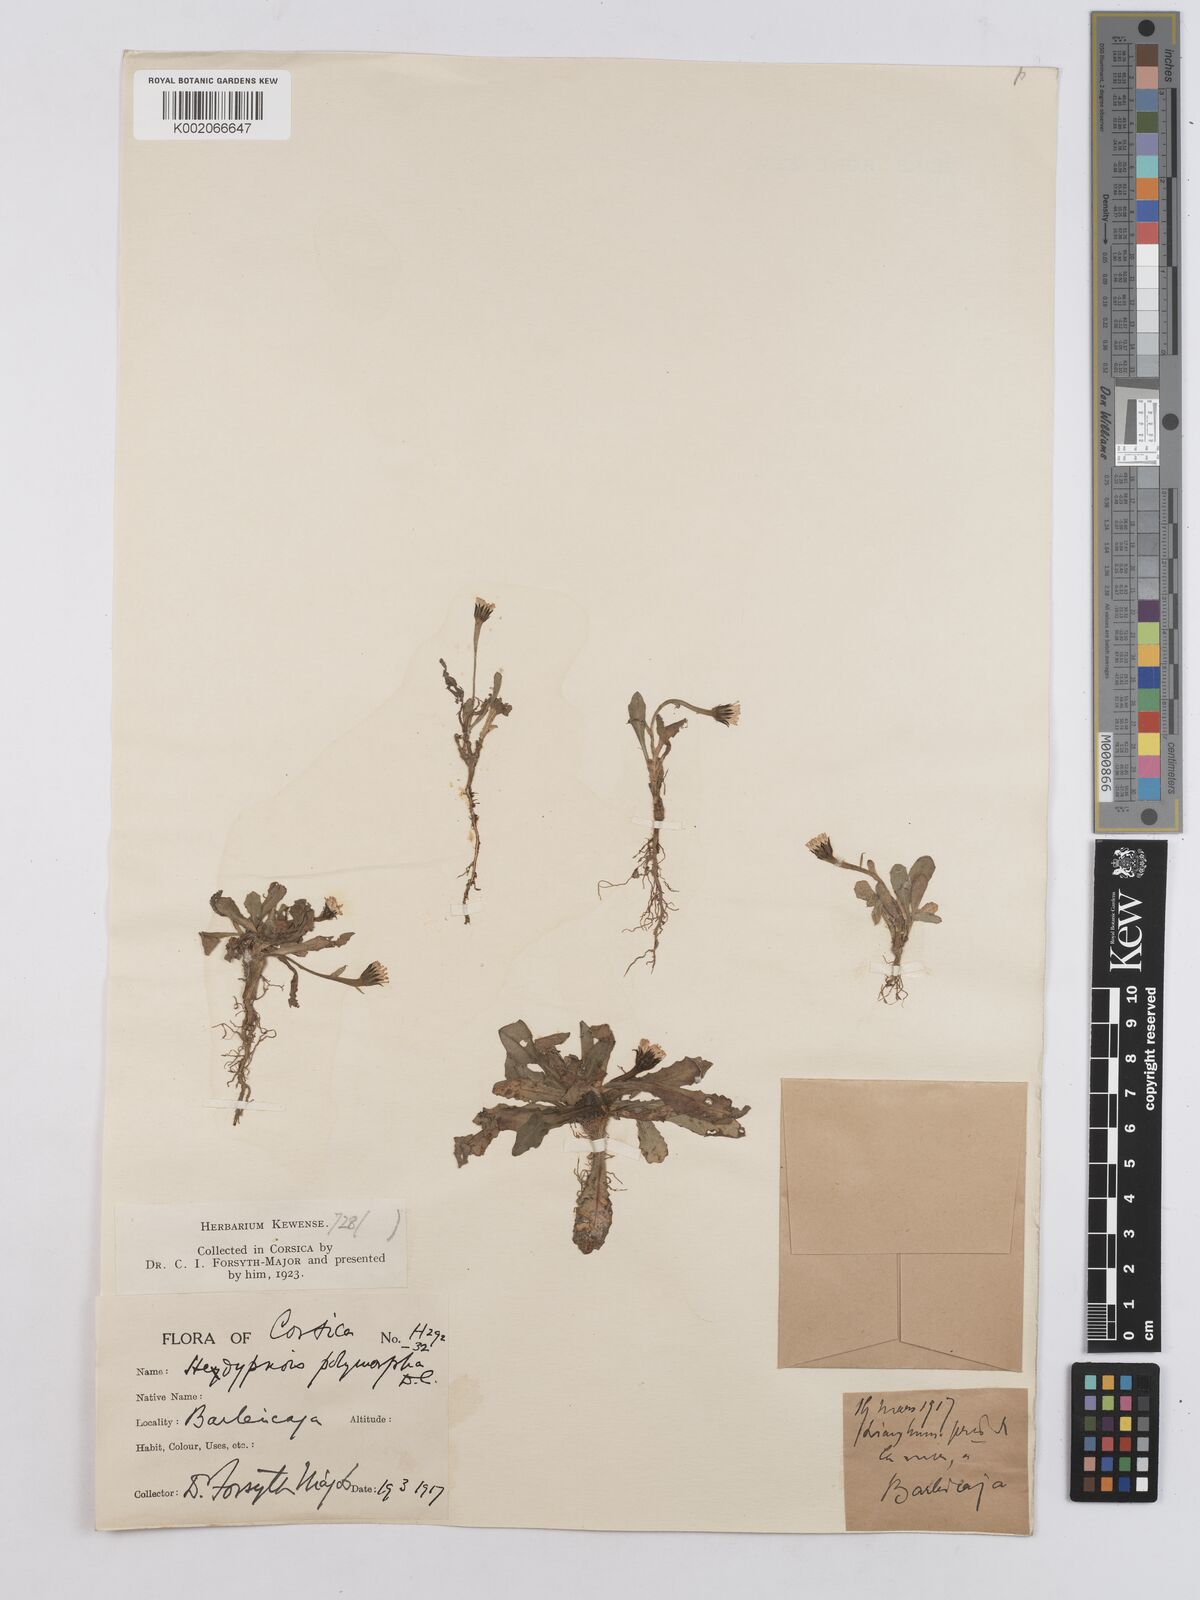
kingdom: Plantae
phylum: Tracheophyta
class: Magnoliopsida
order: Asterales
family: Asteraceae
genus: Hedypnois
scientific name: Hedypnois rhagadioloides
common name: Cretan weed
